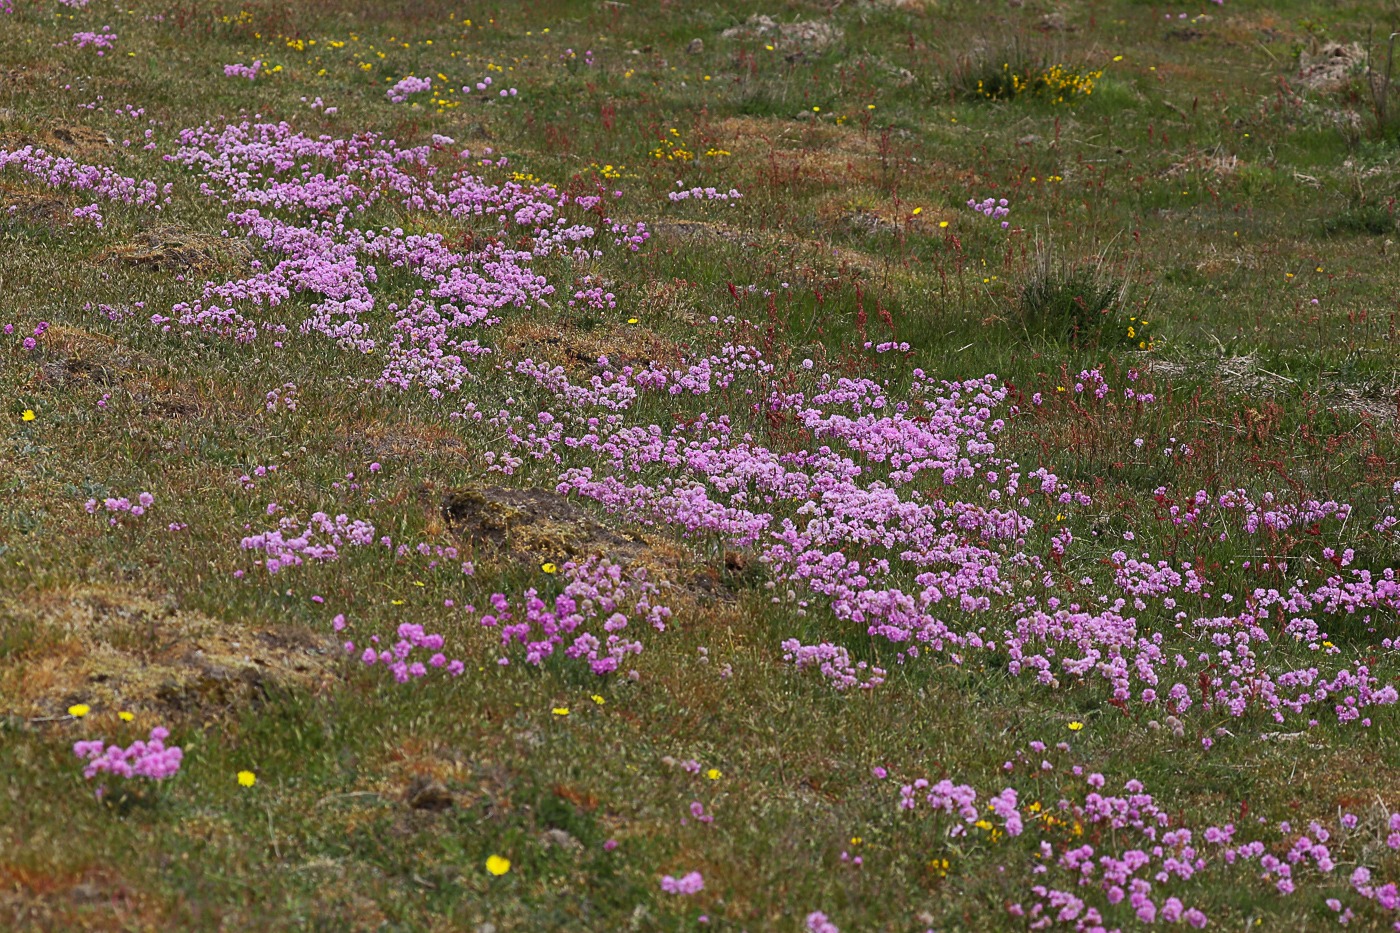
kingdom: Plantae
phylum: Tracheophyta
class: Magnoliopsida
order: Caryophyllales
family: Plumbaginaceae
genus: Armeria
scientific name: Armeria maritima
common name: Engelskgræs
